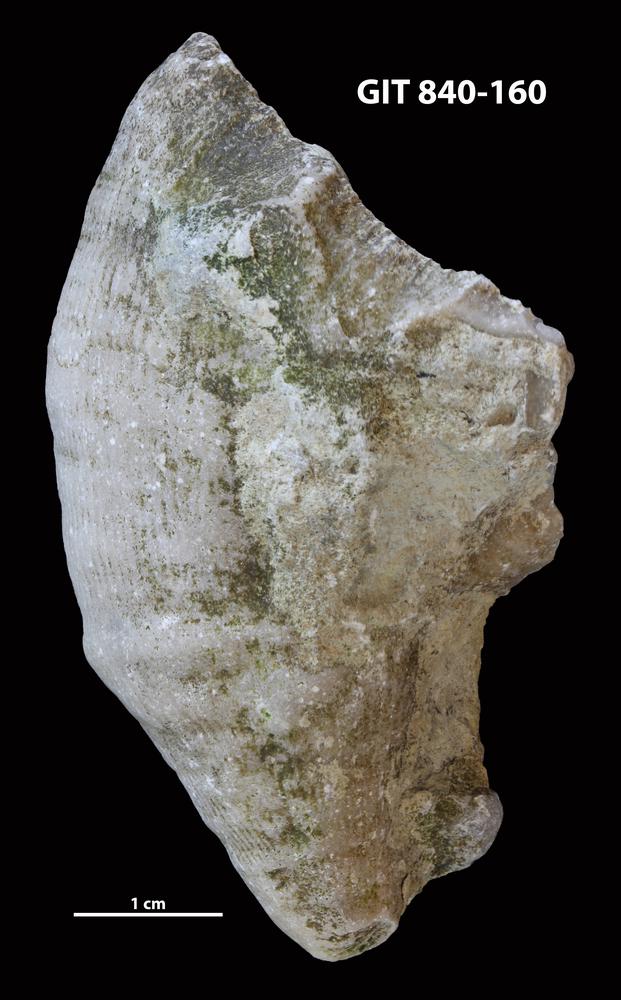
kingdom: Animalia
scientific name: Animalia
